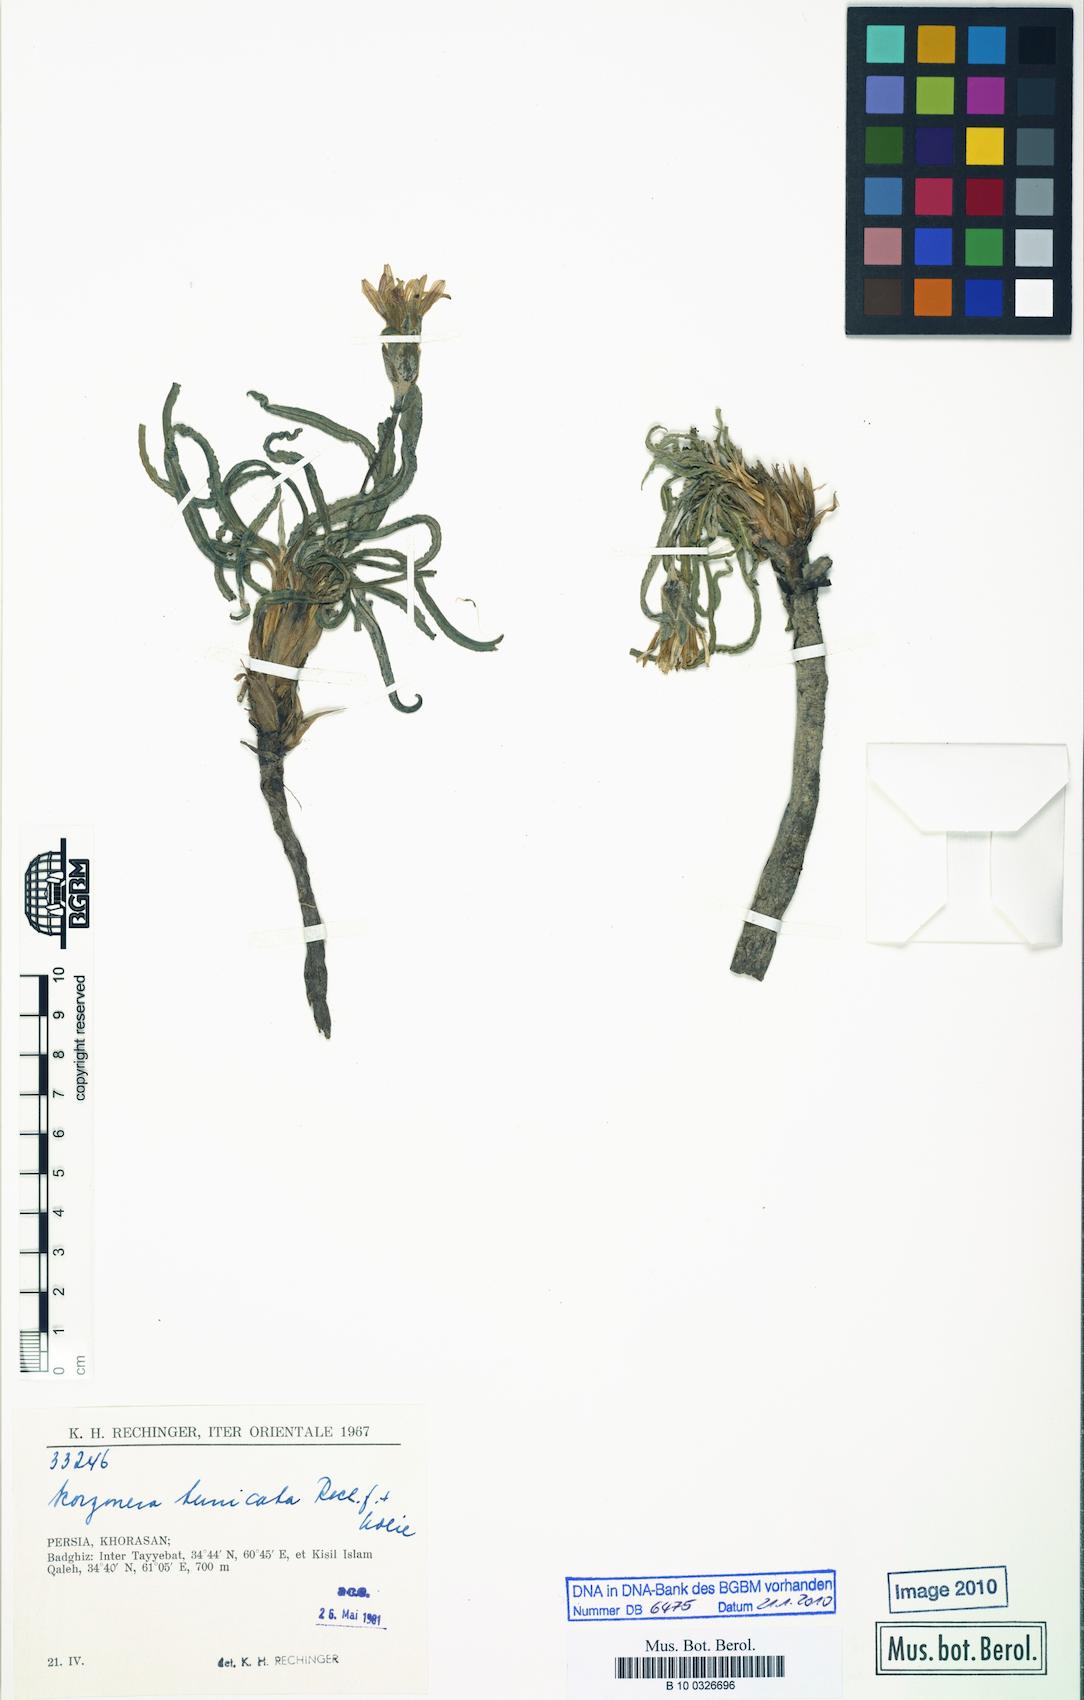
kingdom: Plantae
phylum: Tracheophyta
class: Magnoliopsida
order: Asterales
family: Asteraceae
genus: Scorzonera
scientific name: Scorzonera tunicata
